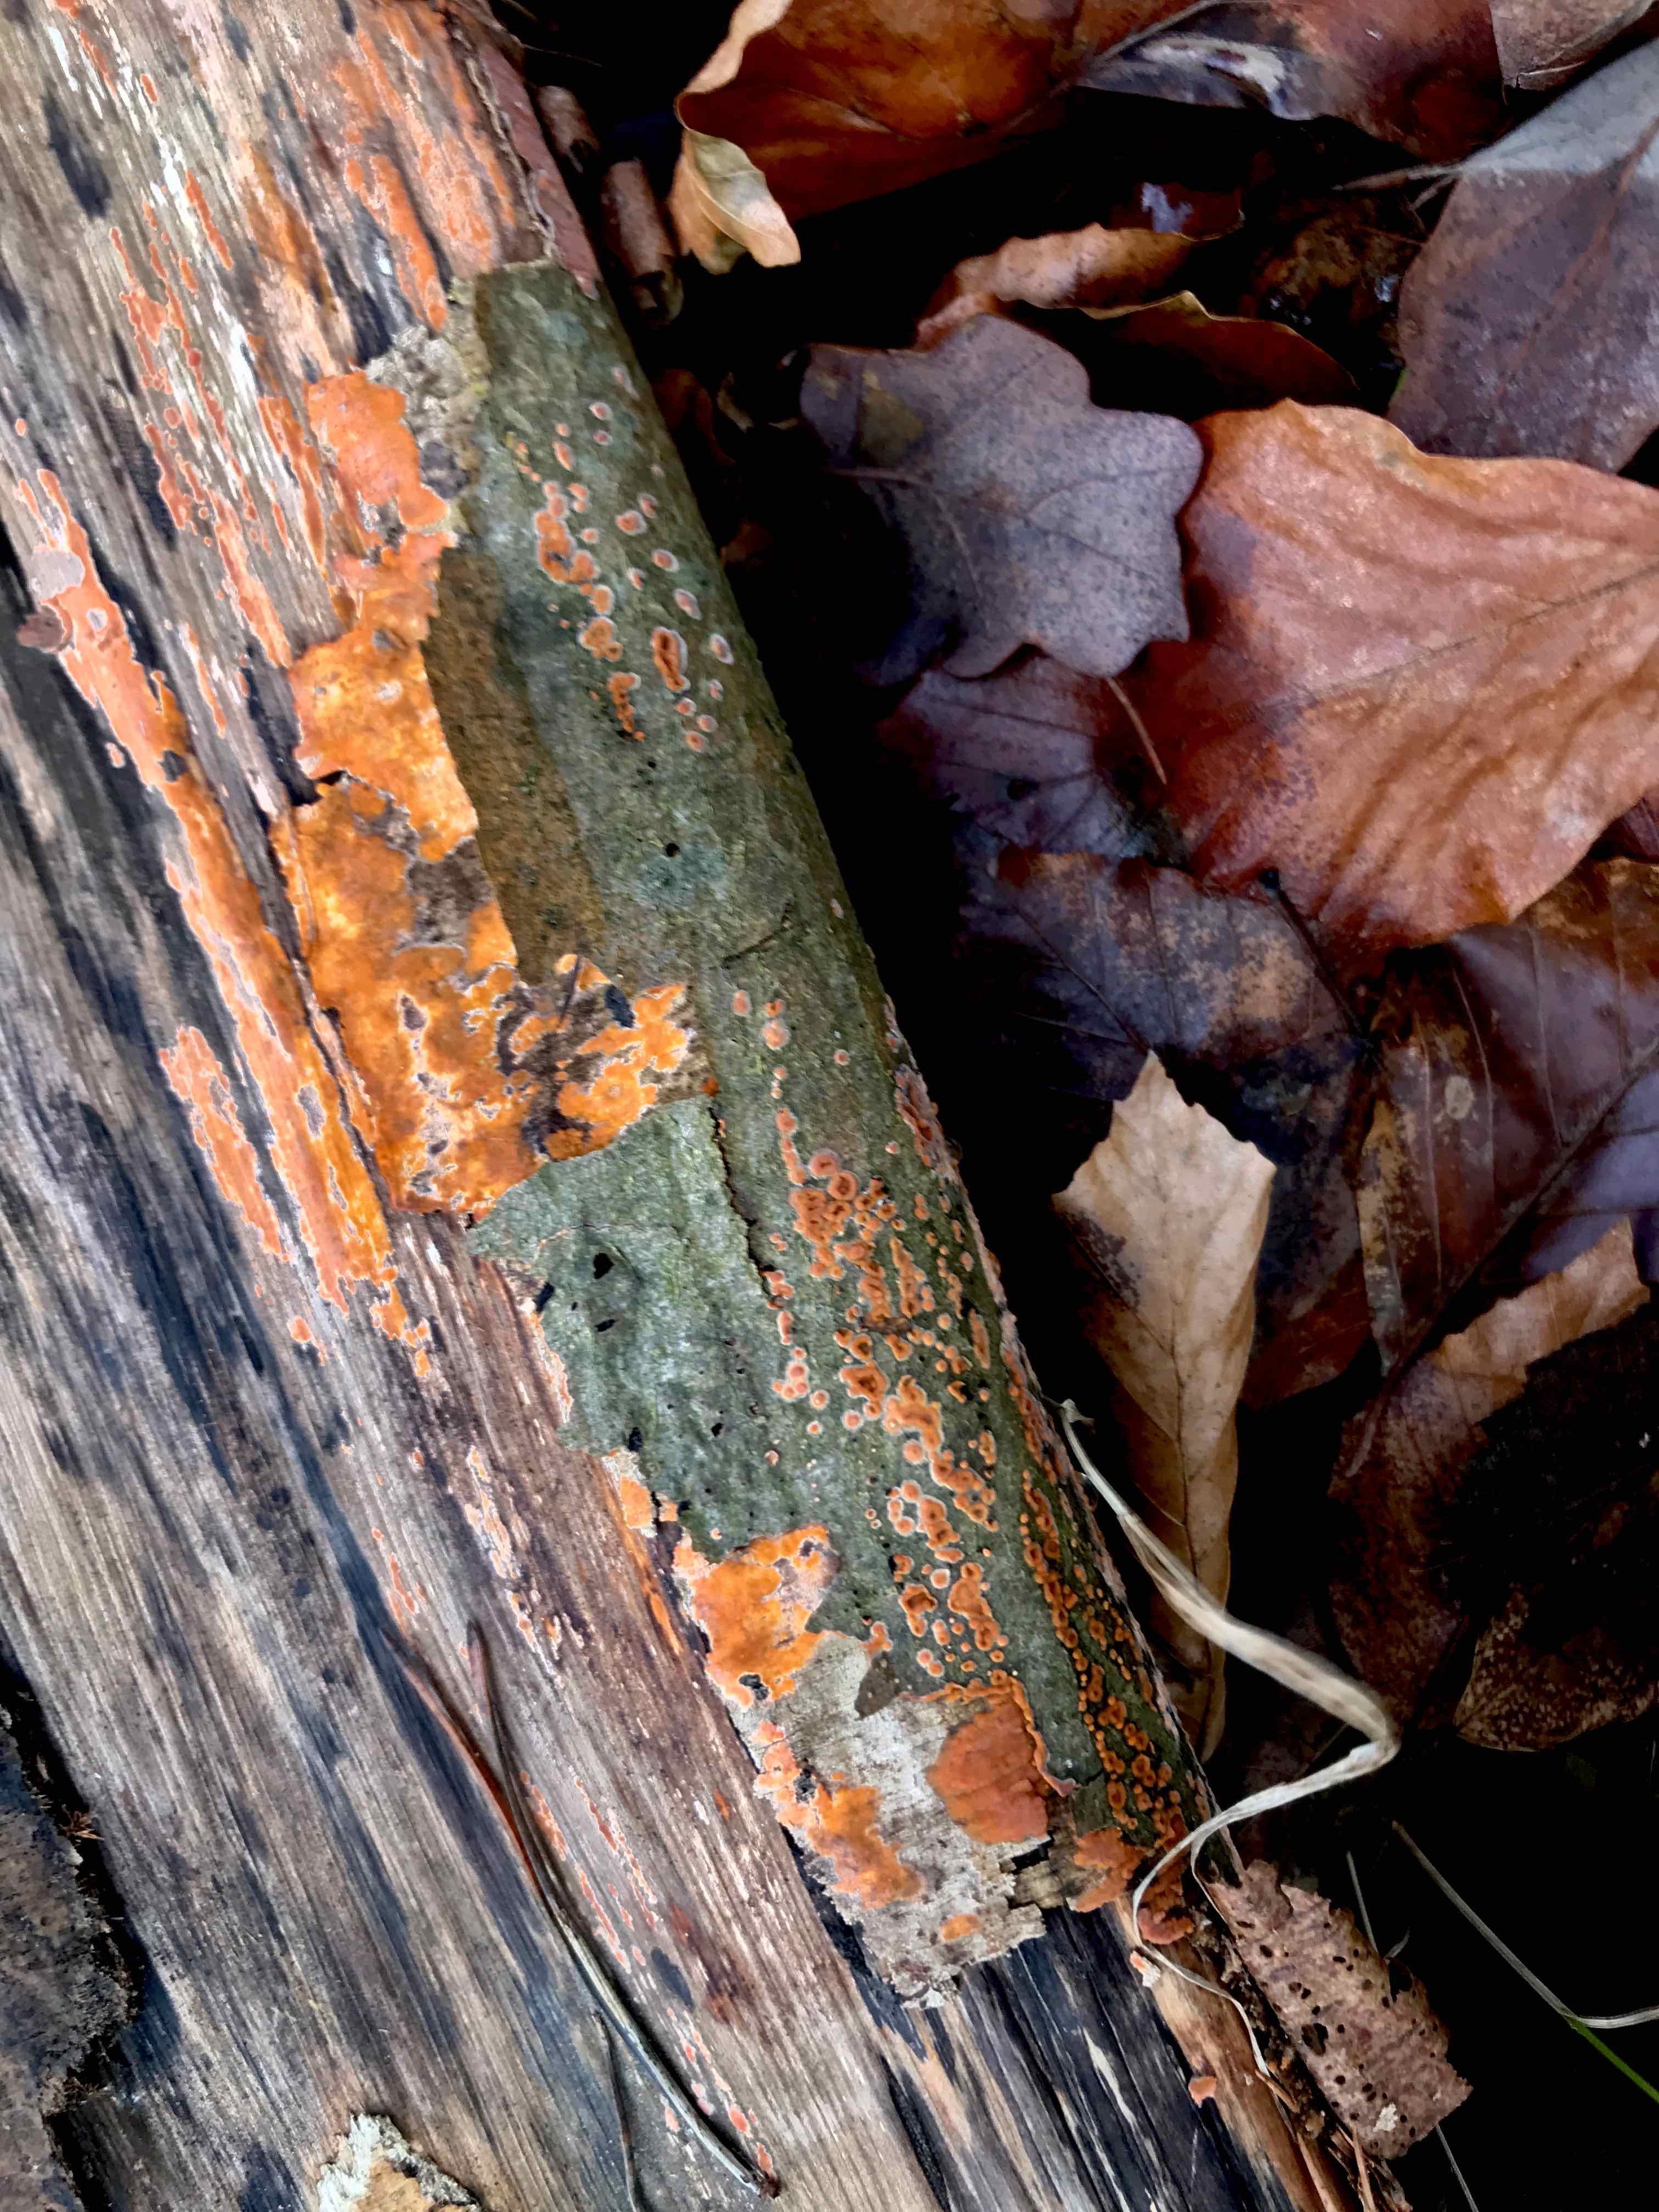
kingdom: Fungi
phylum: Basidiomycota
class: Agaricomycetes
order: Russulales
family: Peniophoraceae
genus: Peniophora
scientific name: Peniophora incarnata
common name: laksefarvet voksskind
